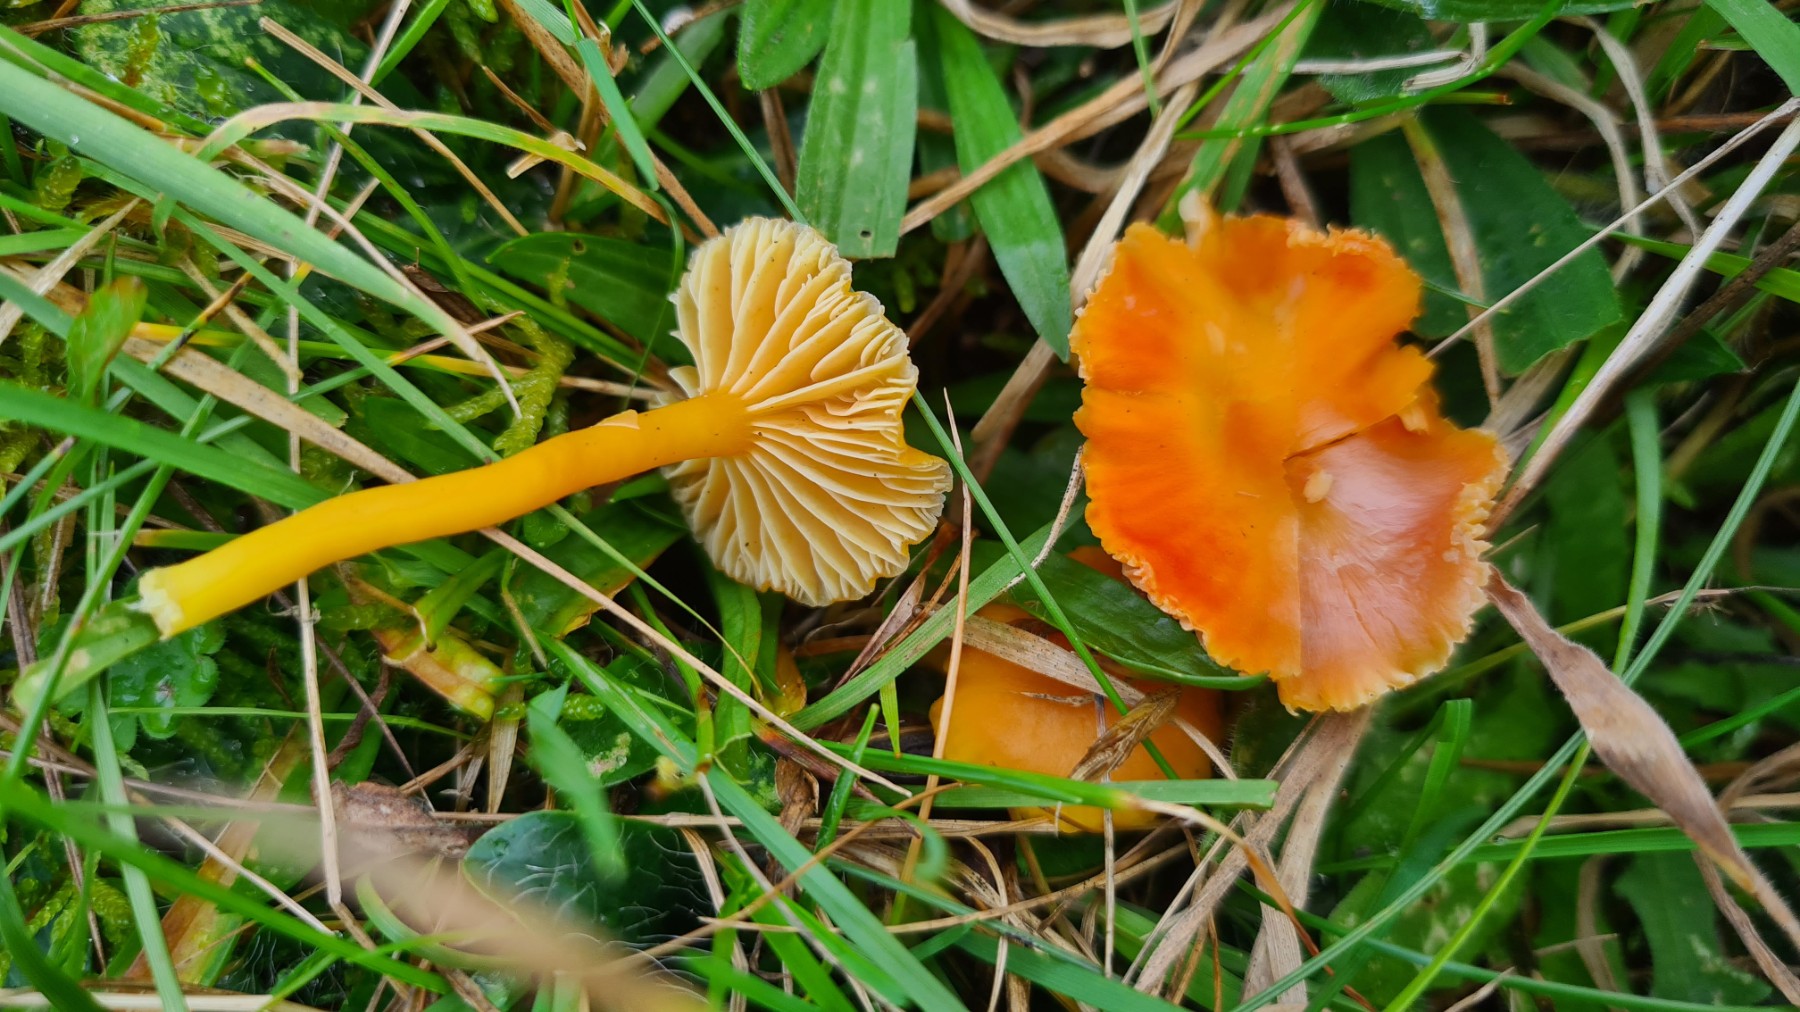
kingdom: Fungi
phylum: Basidiomycota
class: Agaricomycetes
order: Agaricales
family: Hygrophoraceae
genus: Hygrocybe
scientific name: Hygrocybe reidii
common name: honning-vokshat
